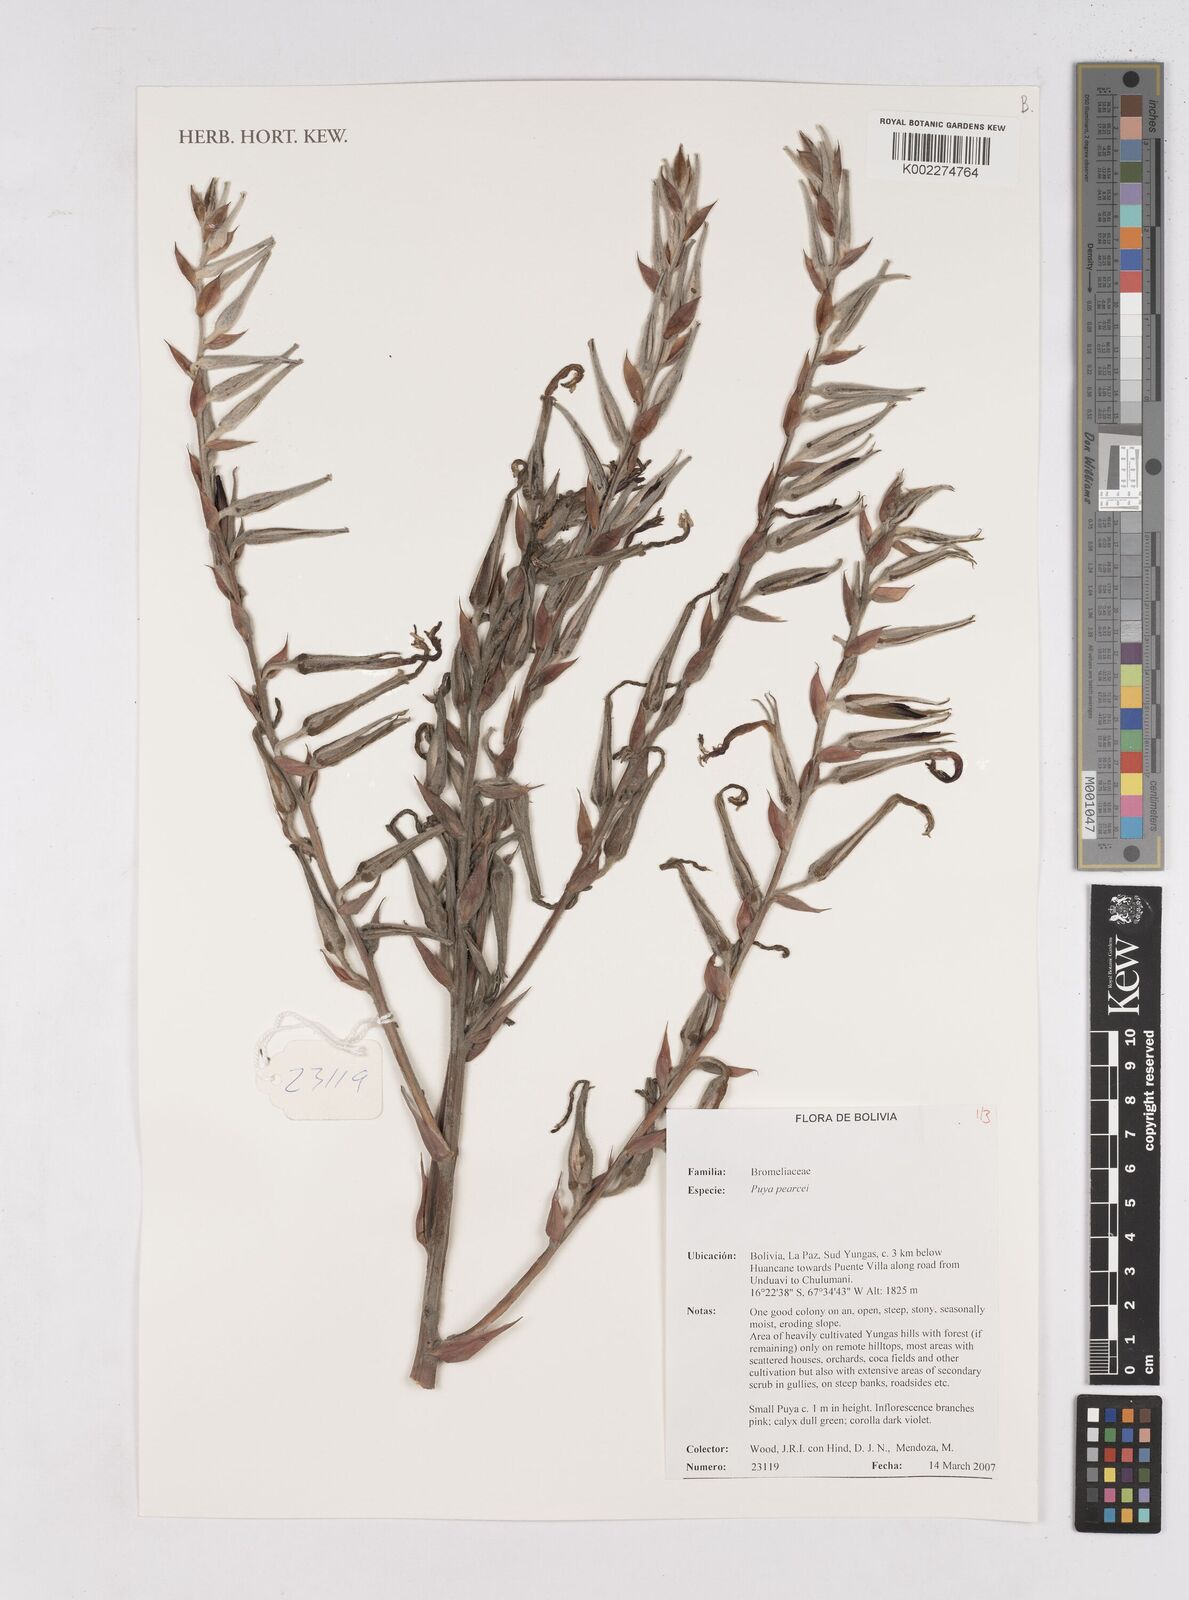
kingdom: Plantae
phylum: Tracheophyta
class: Liliopsida
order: Poales
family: Bromeliaceae
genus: Puya
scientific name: Puya pearcei
